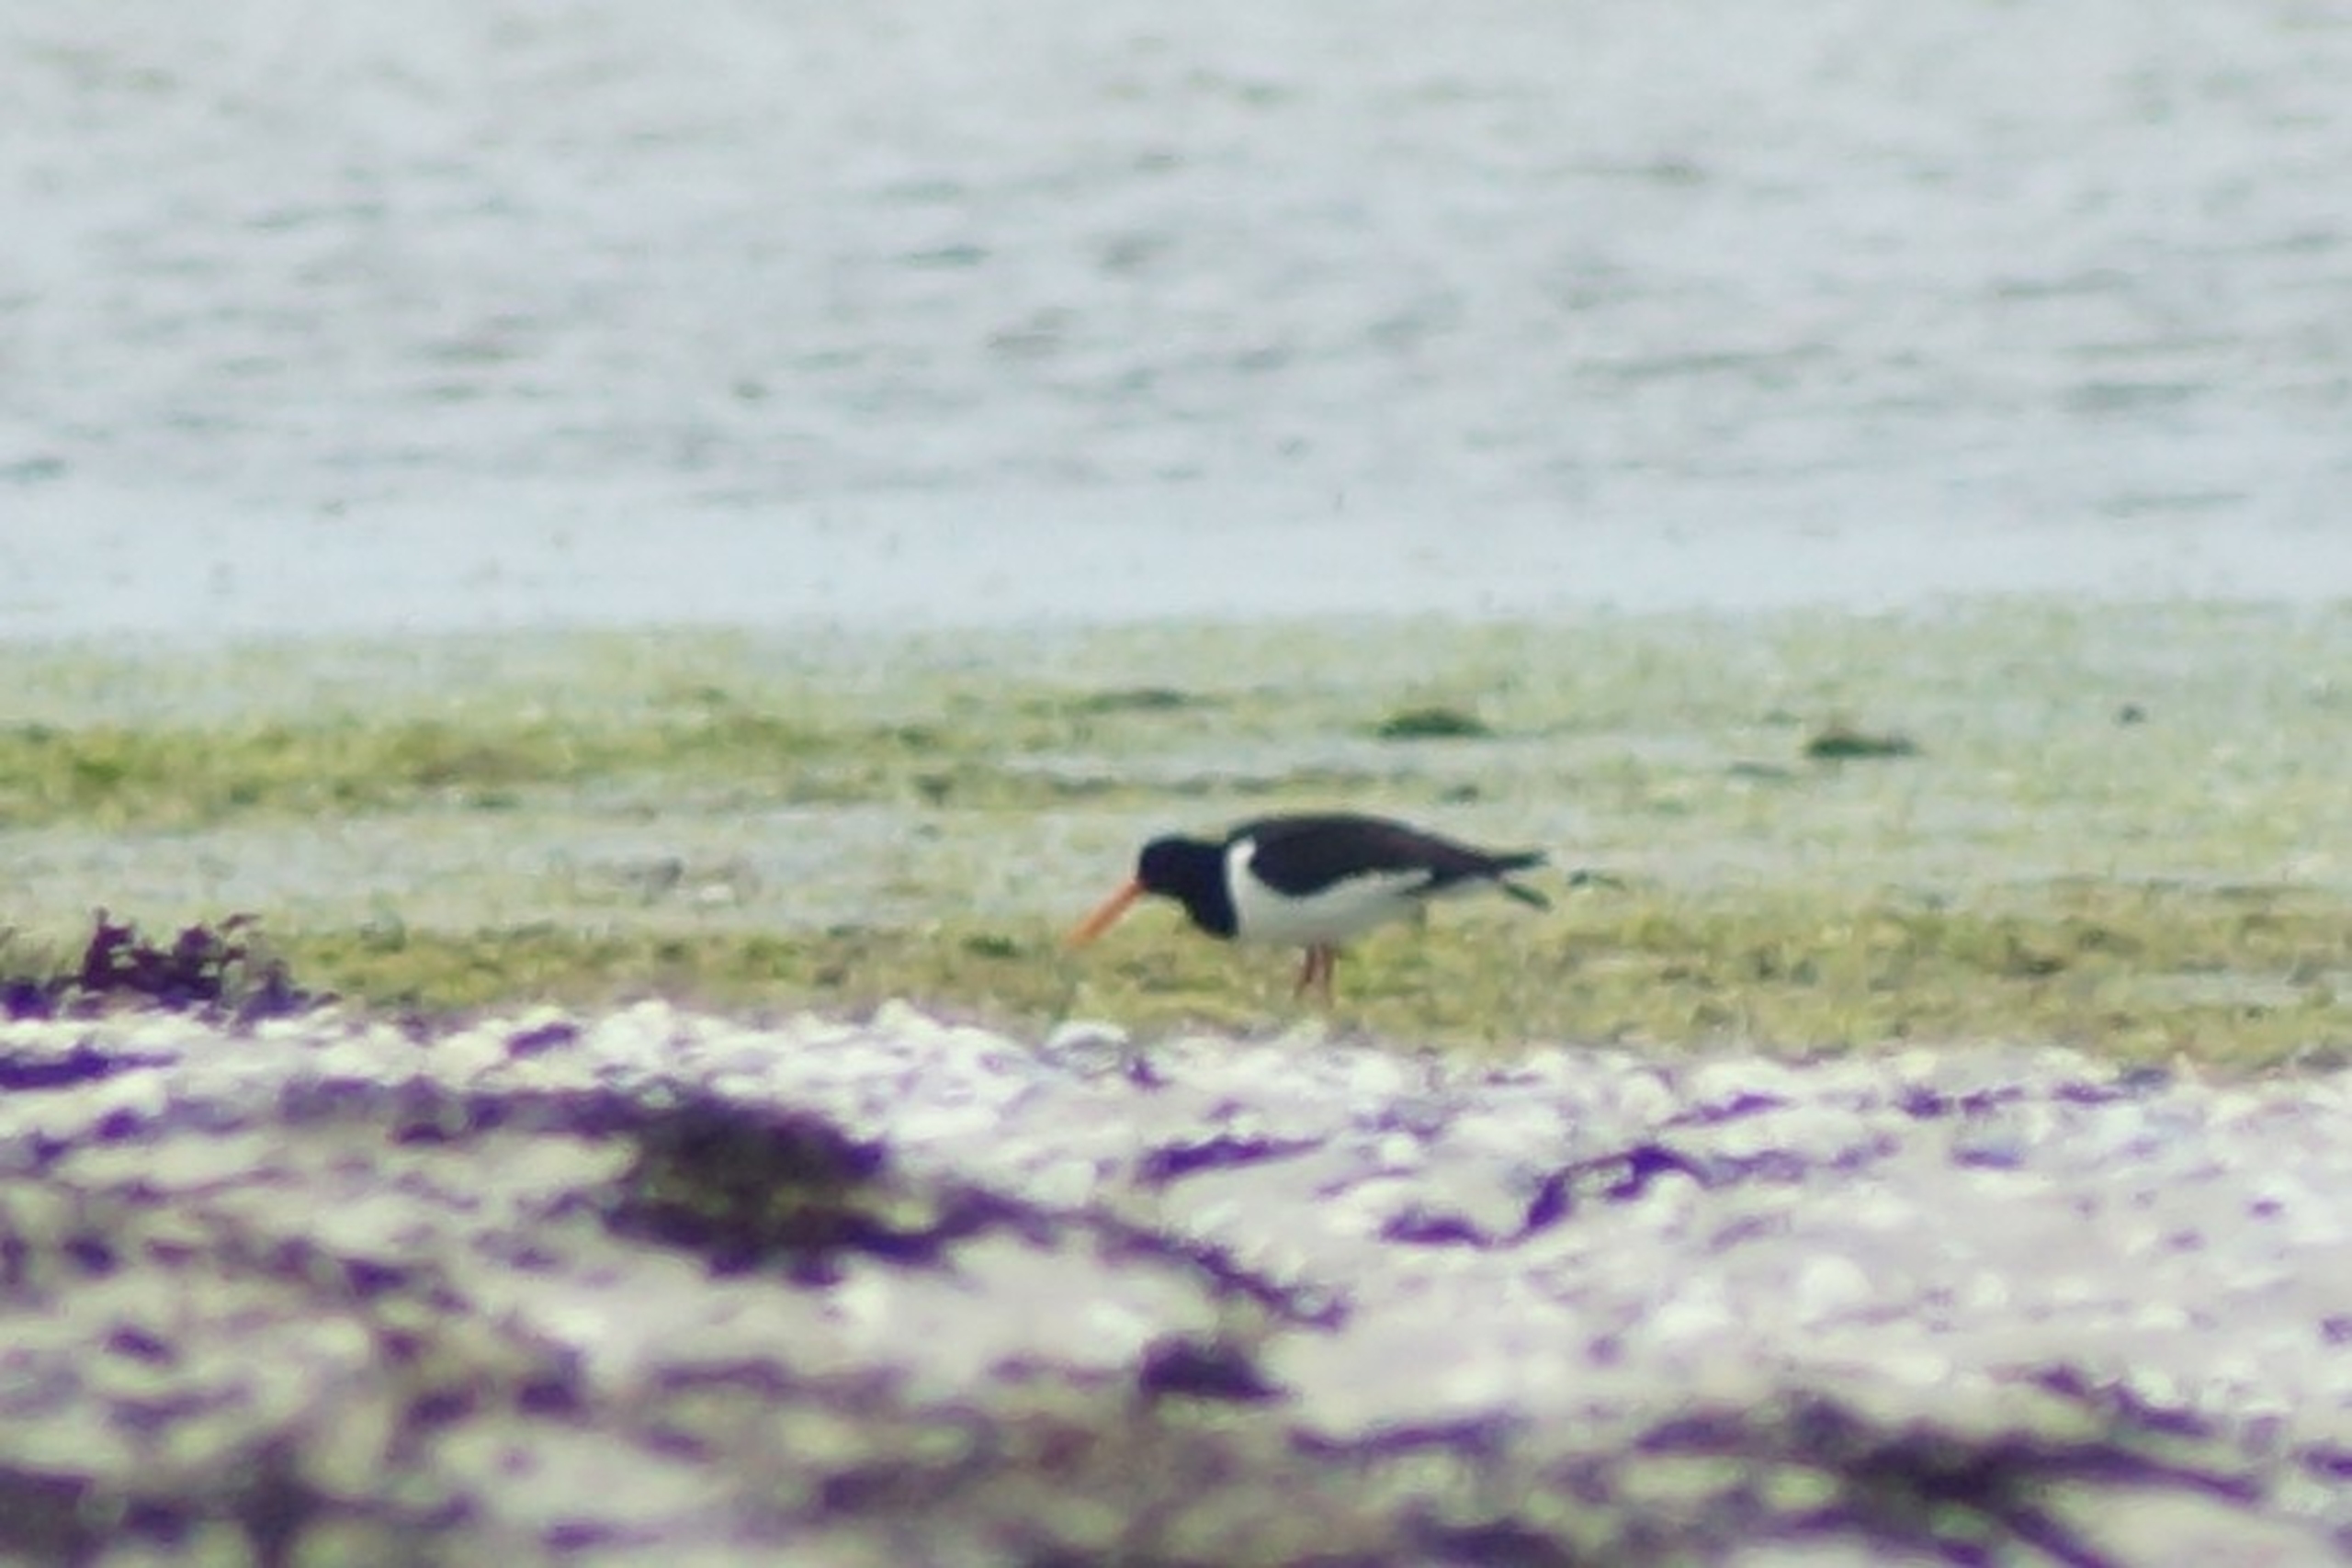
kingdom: Animalia
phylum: Chordata
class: Aves
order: Charadriiformes
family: Haematopodidae
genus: Haematopus
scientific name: Haematopus ostralegus
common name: Strandskade
